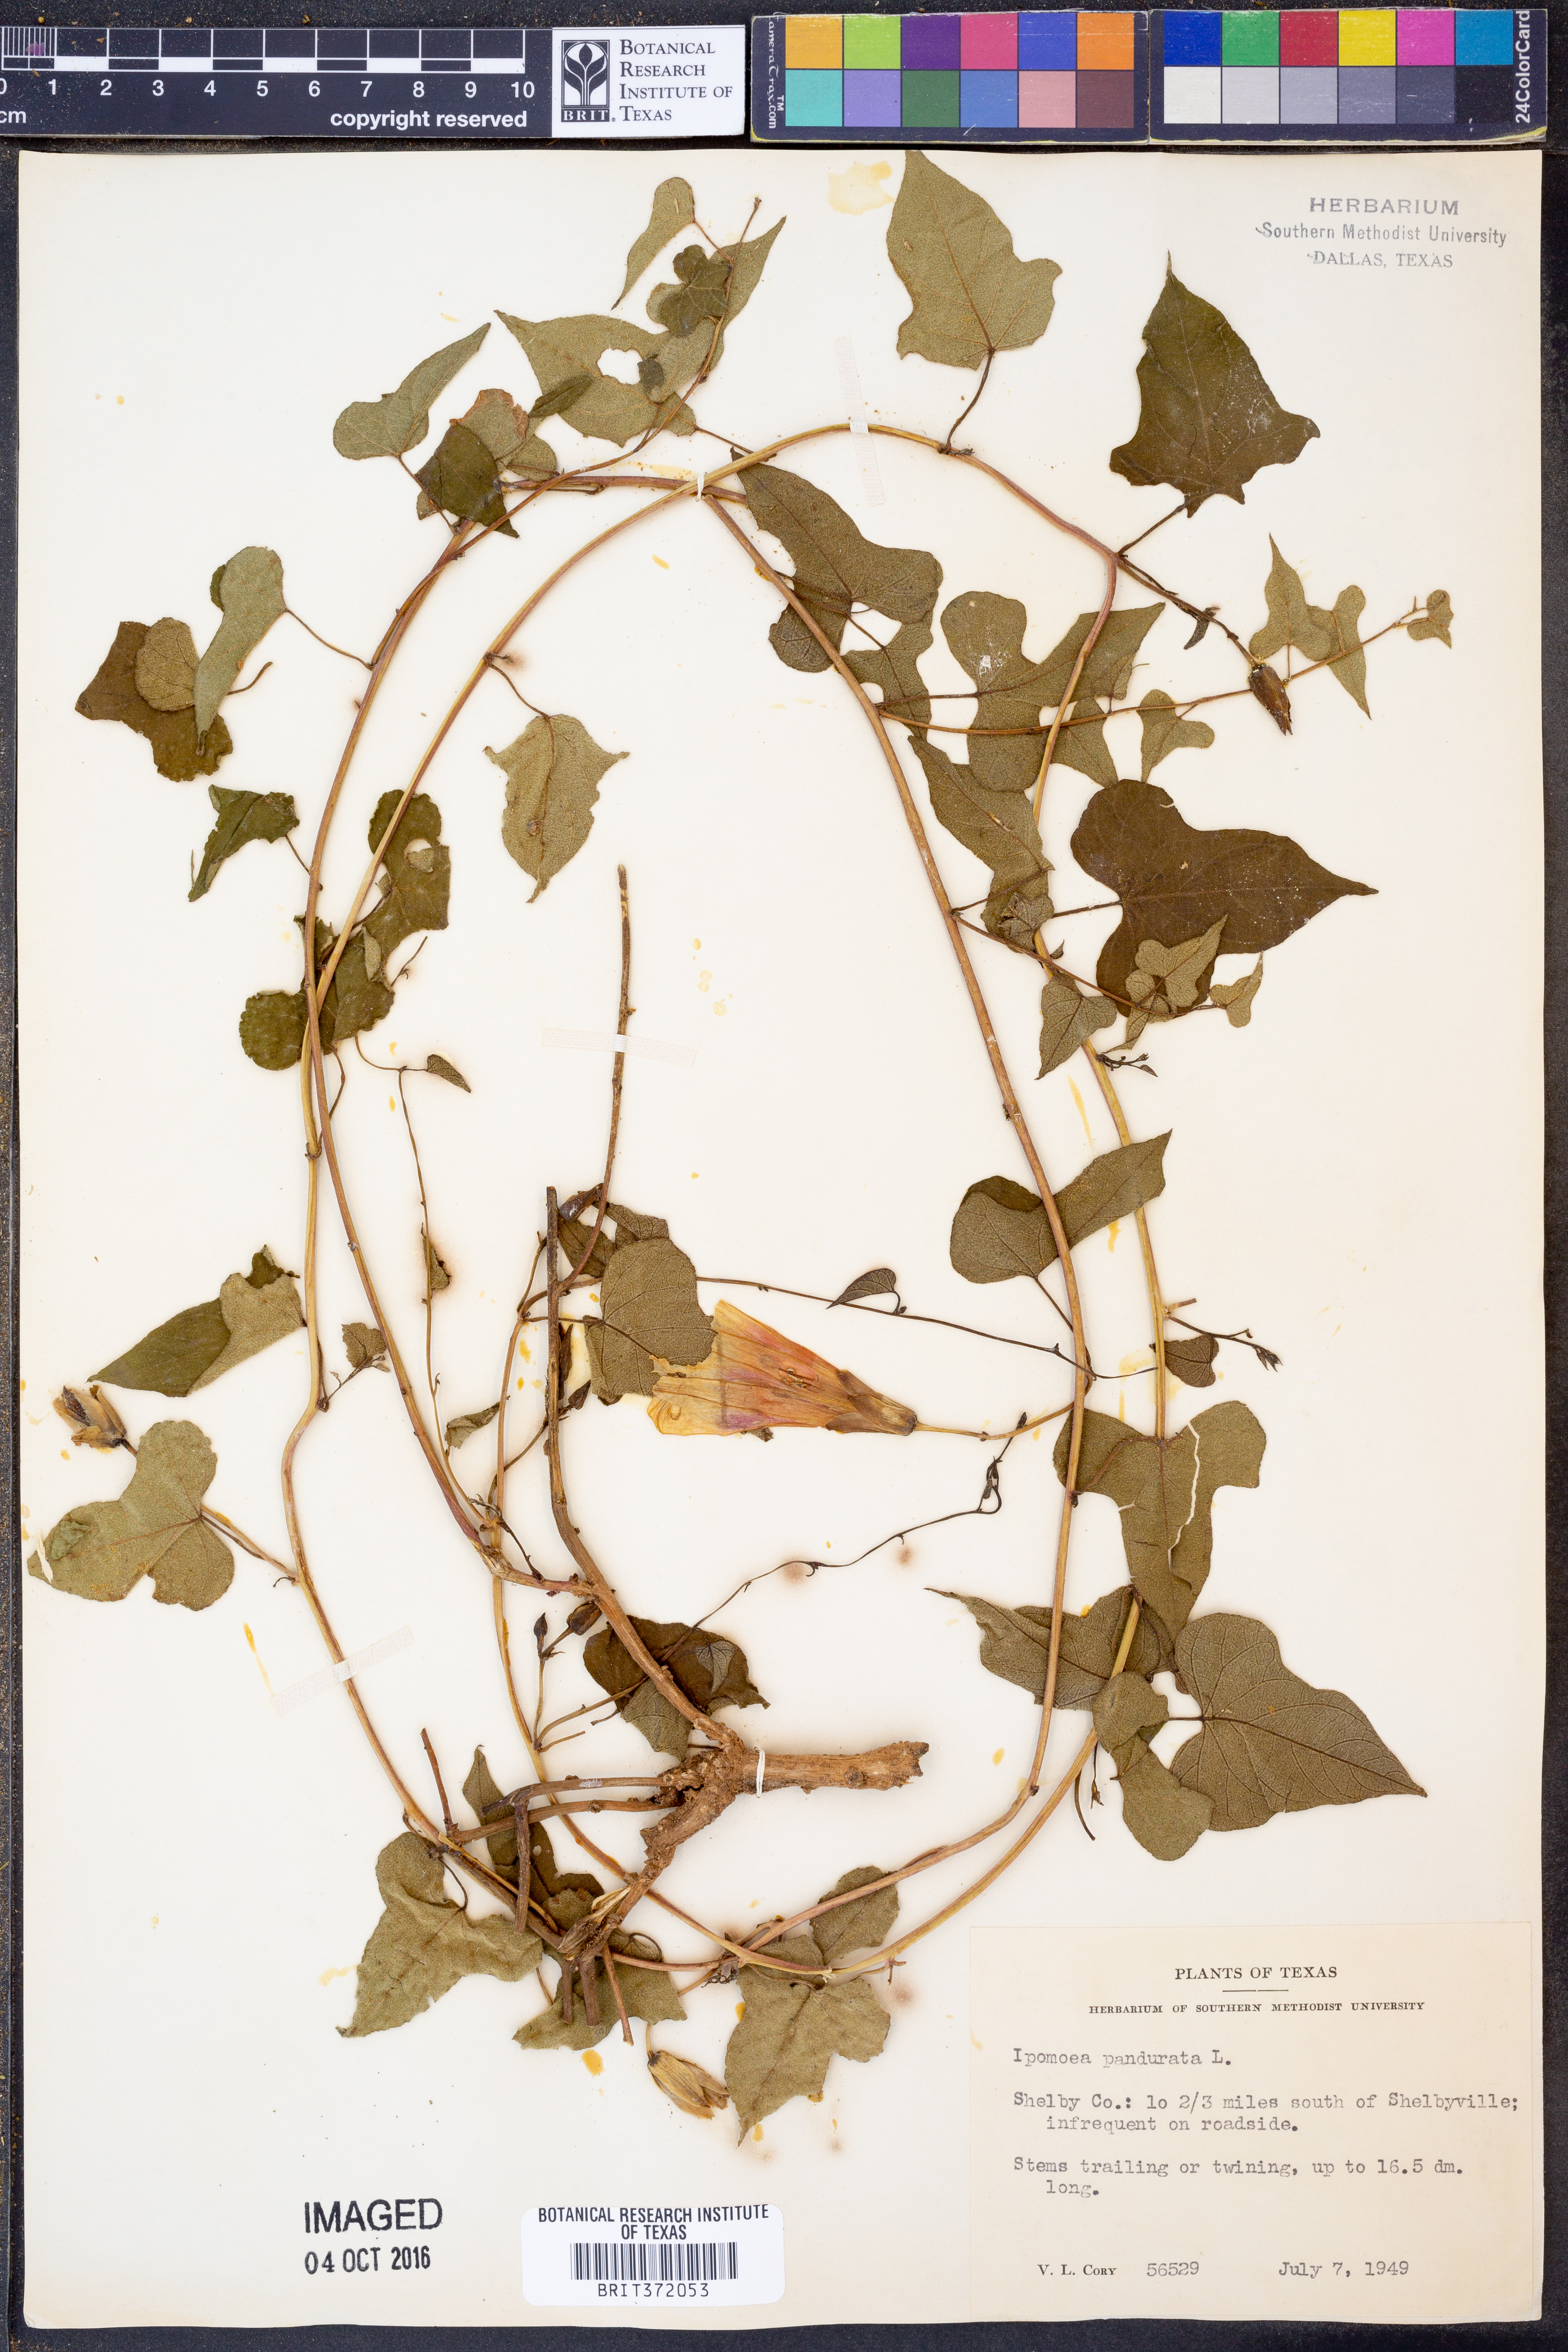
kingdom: Plantae
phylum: Tracheophyta
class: Magnoliopsida
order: Solanales
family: Convolvulaceae
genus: Ipomoea
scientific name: Ipomoea pandurata
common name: Man-of-the-earth
